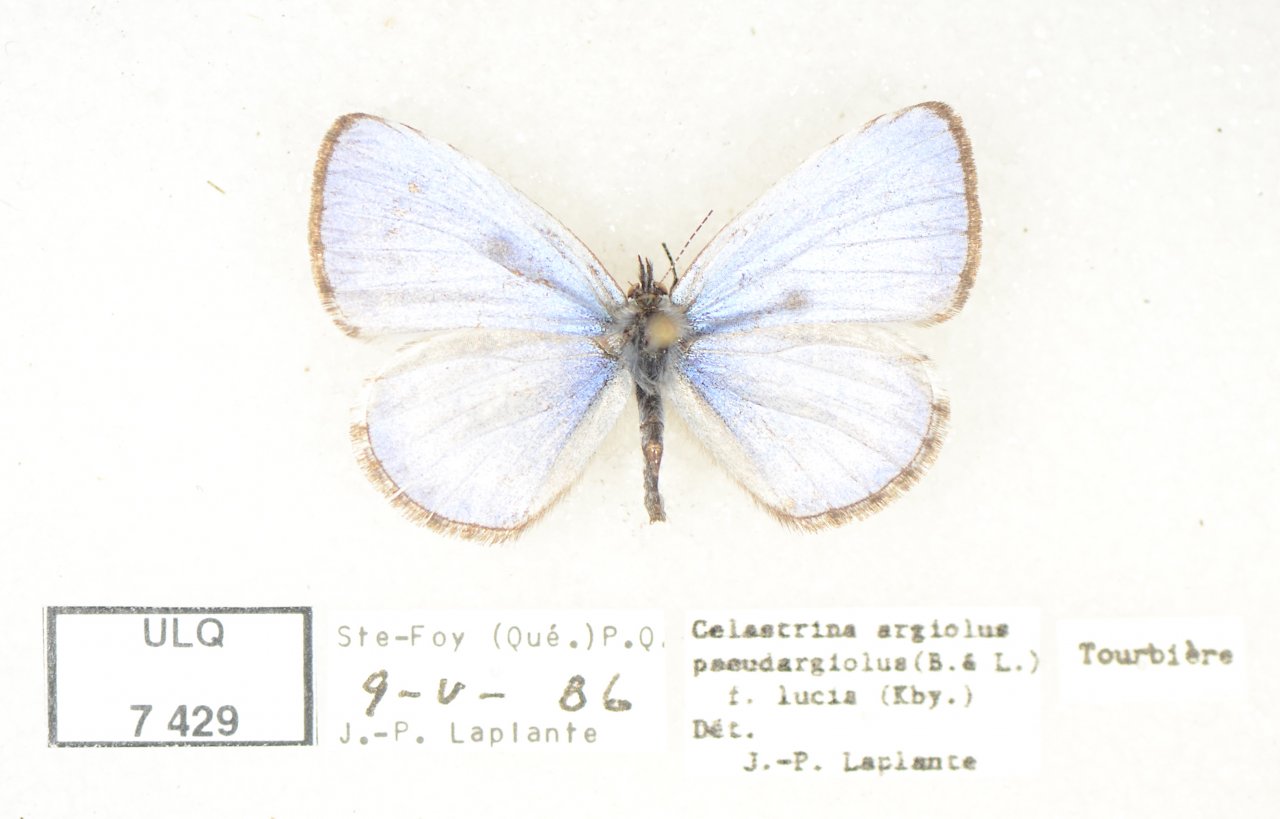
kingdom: Animalia
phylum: Arthropoda
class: Insecta
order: Lepidoptera
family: Lycaenidae
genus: Celastrina
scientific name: Celastrina lucia
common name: Northern Spring Azure
